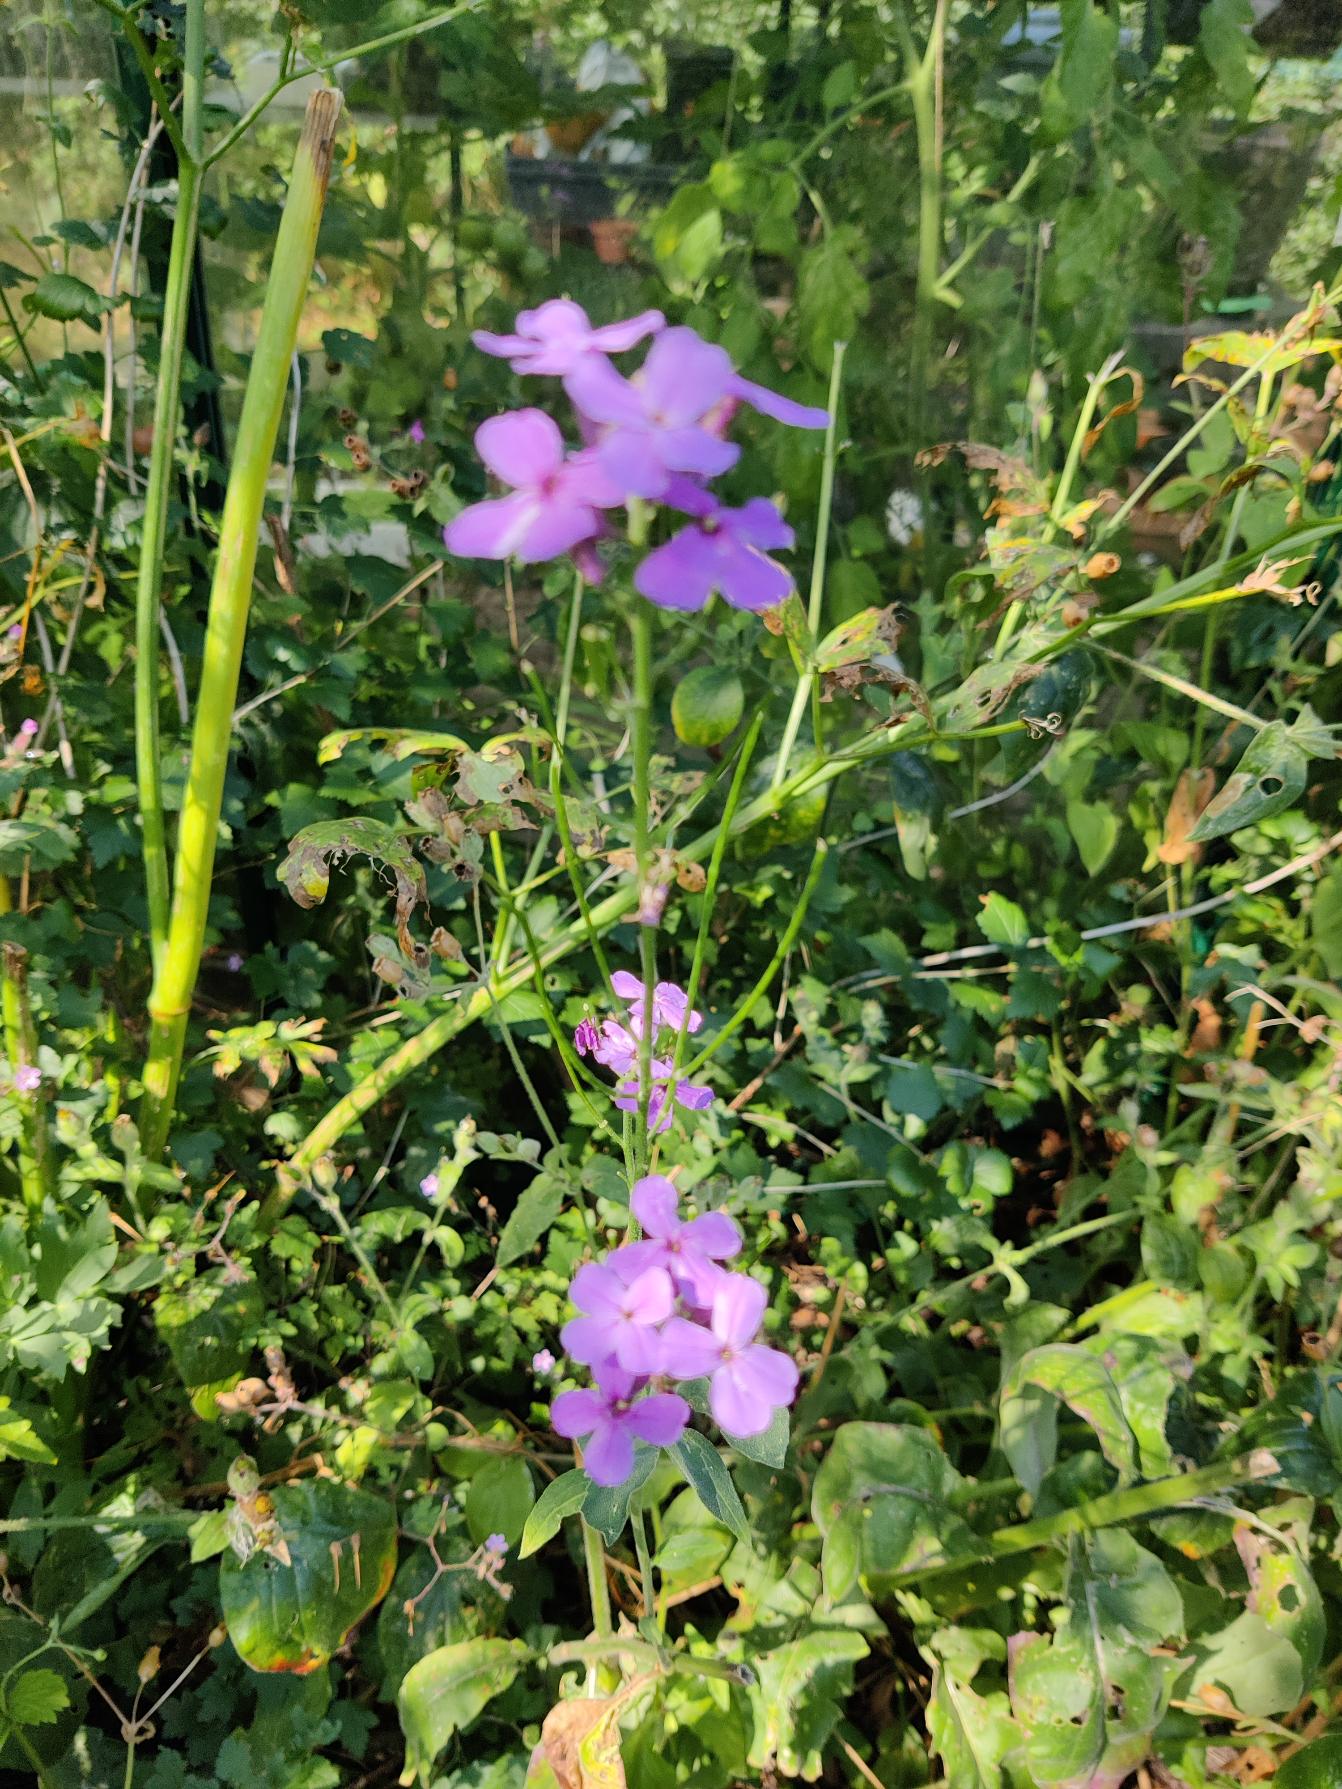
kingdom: Plantae
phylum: Tracheophyta
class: Magnoliopsida
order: Brassicales
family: Brassicaceae
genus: Hesperis
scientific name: Hesperis matronalis
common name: Aftenstjerne
